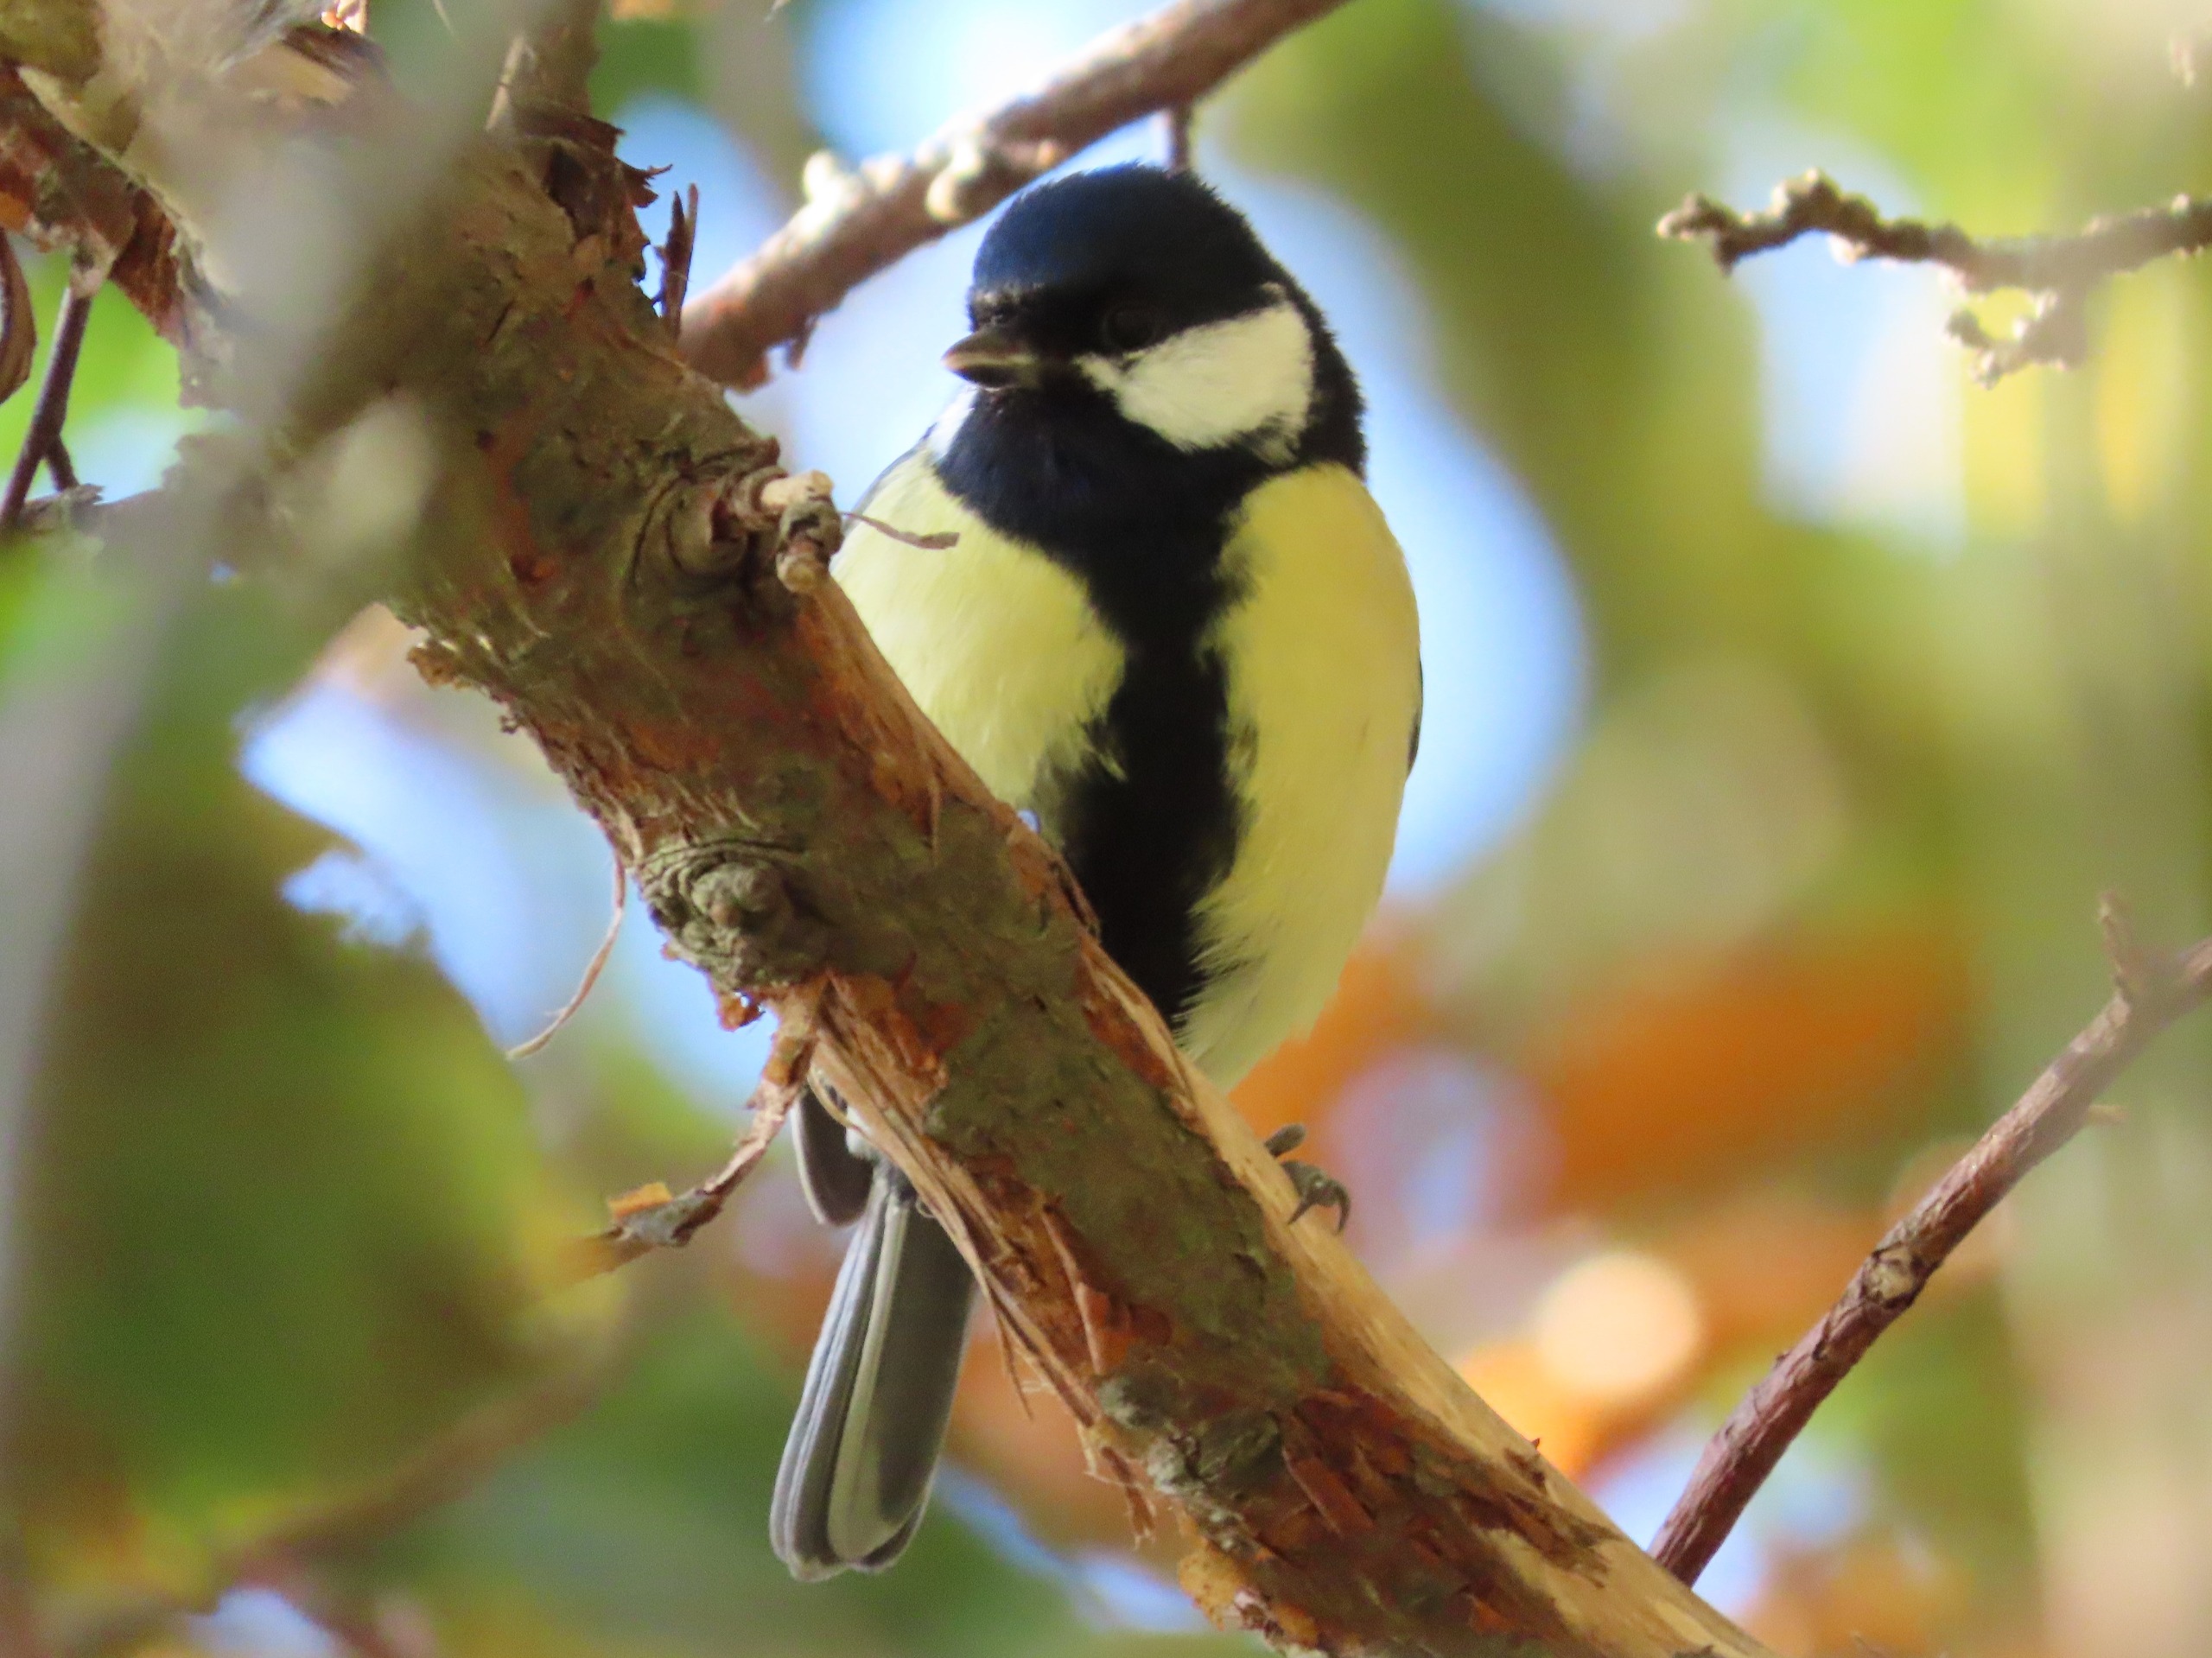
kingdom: Animalia
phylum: Chordata
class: Aves
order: Passeriformes
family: Paridae
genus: Parus
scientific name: Parus major
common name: Musvit
